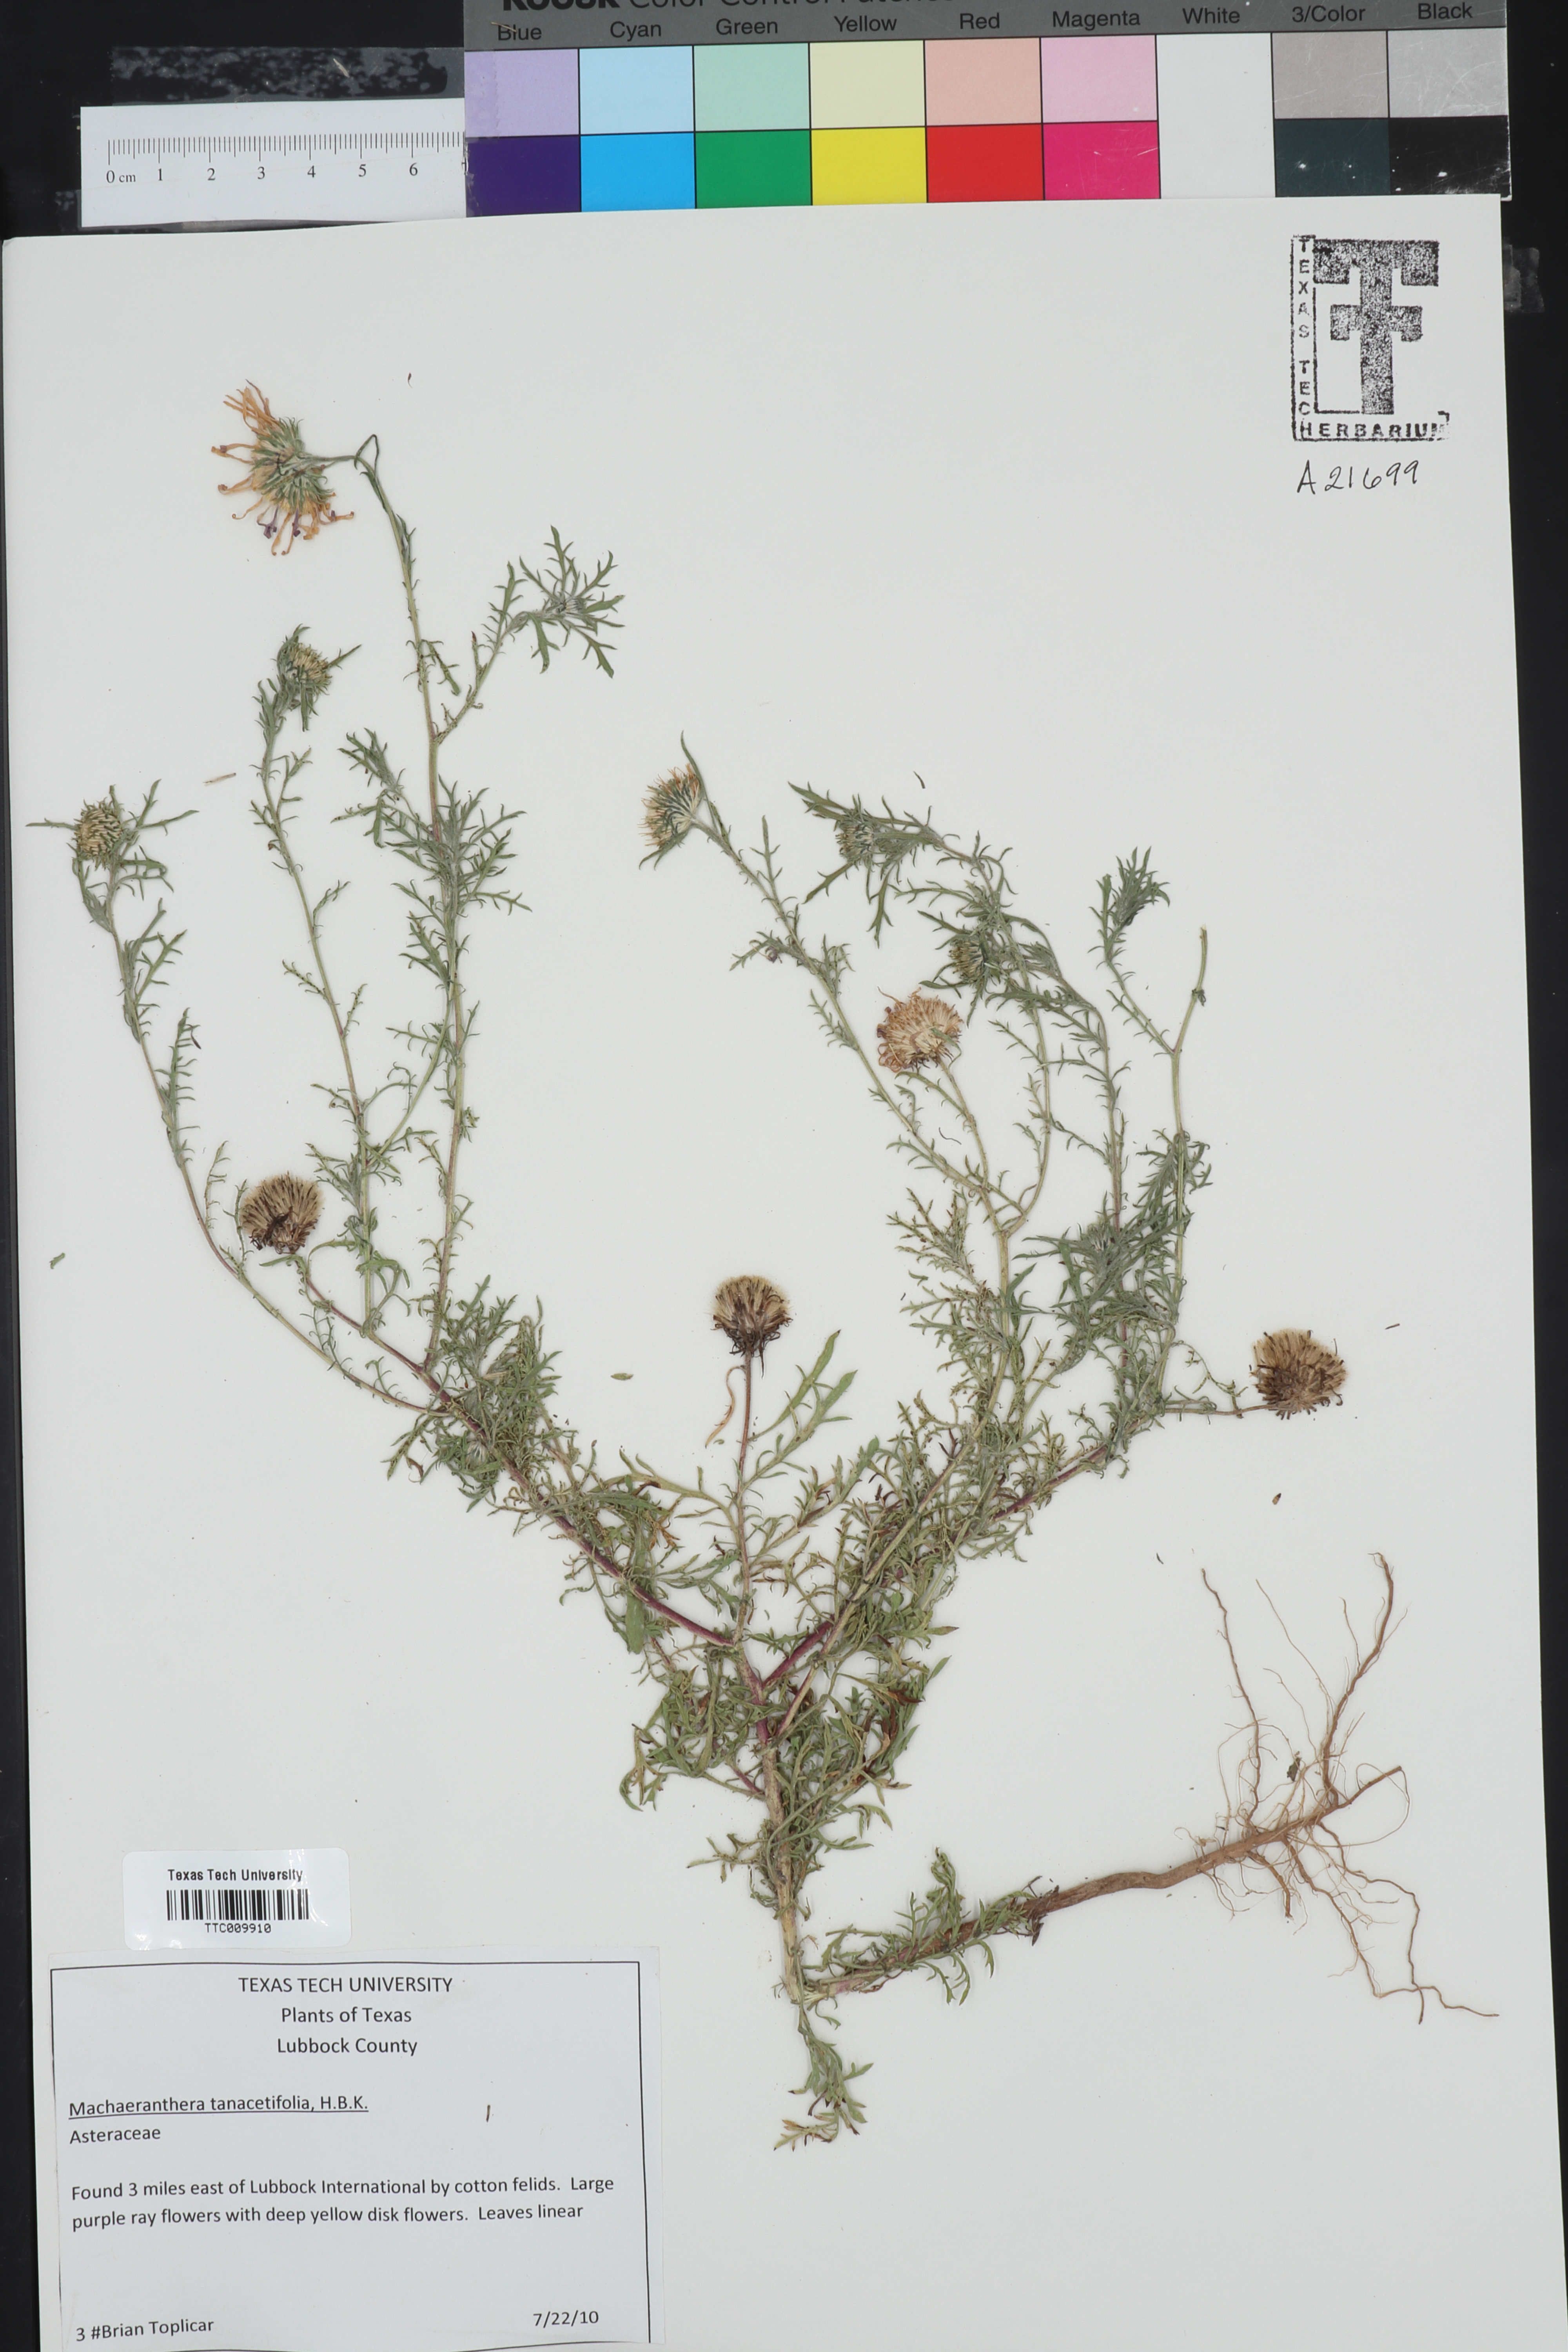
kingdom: Plantae
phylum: Tracheophyta
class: Magnoliopsida
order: Asterales
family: Asteraceae
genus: Machaeranthera
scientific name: Machaeranthera tanacetifolia
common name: Tansy-aster
